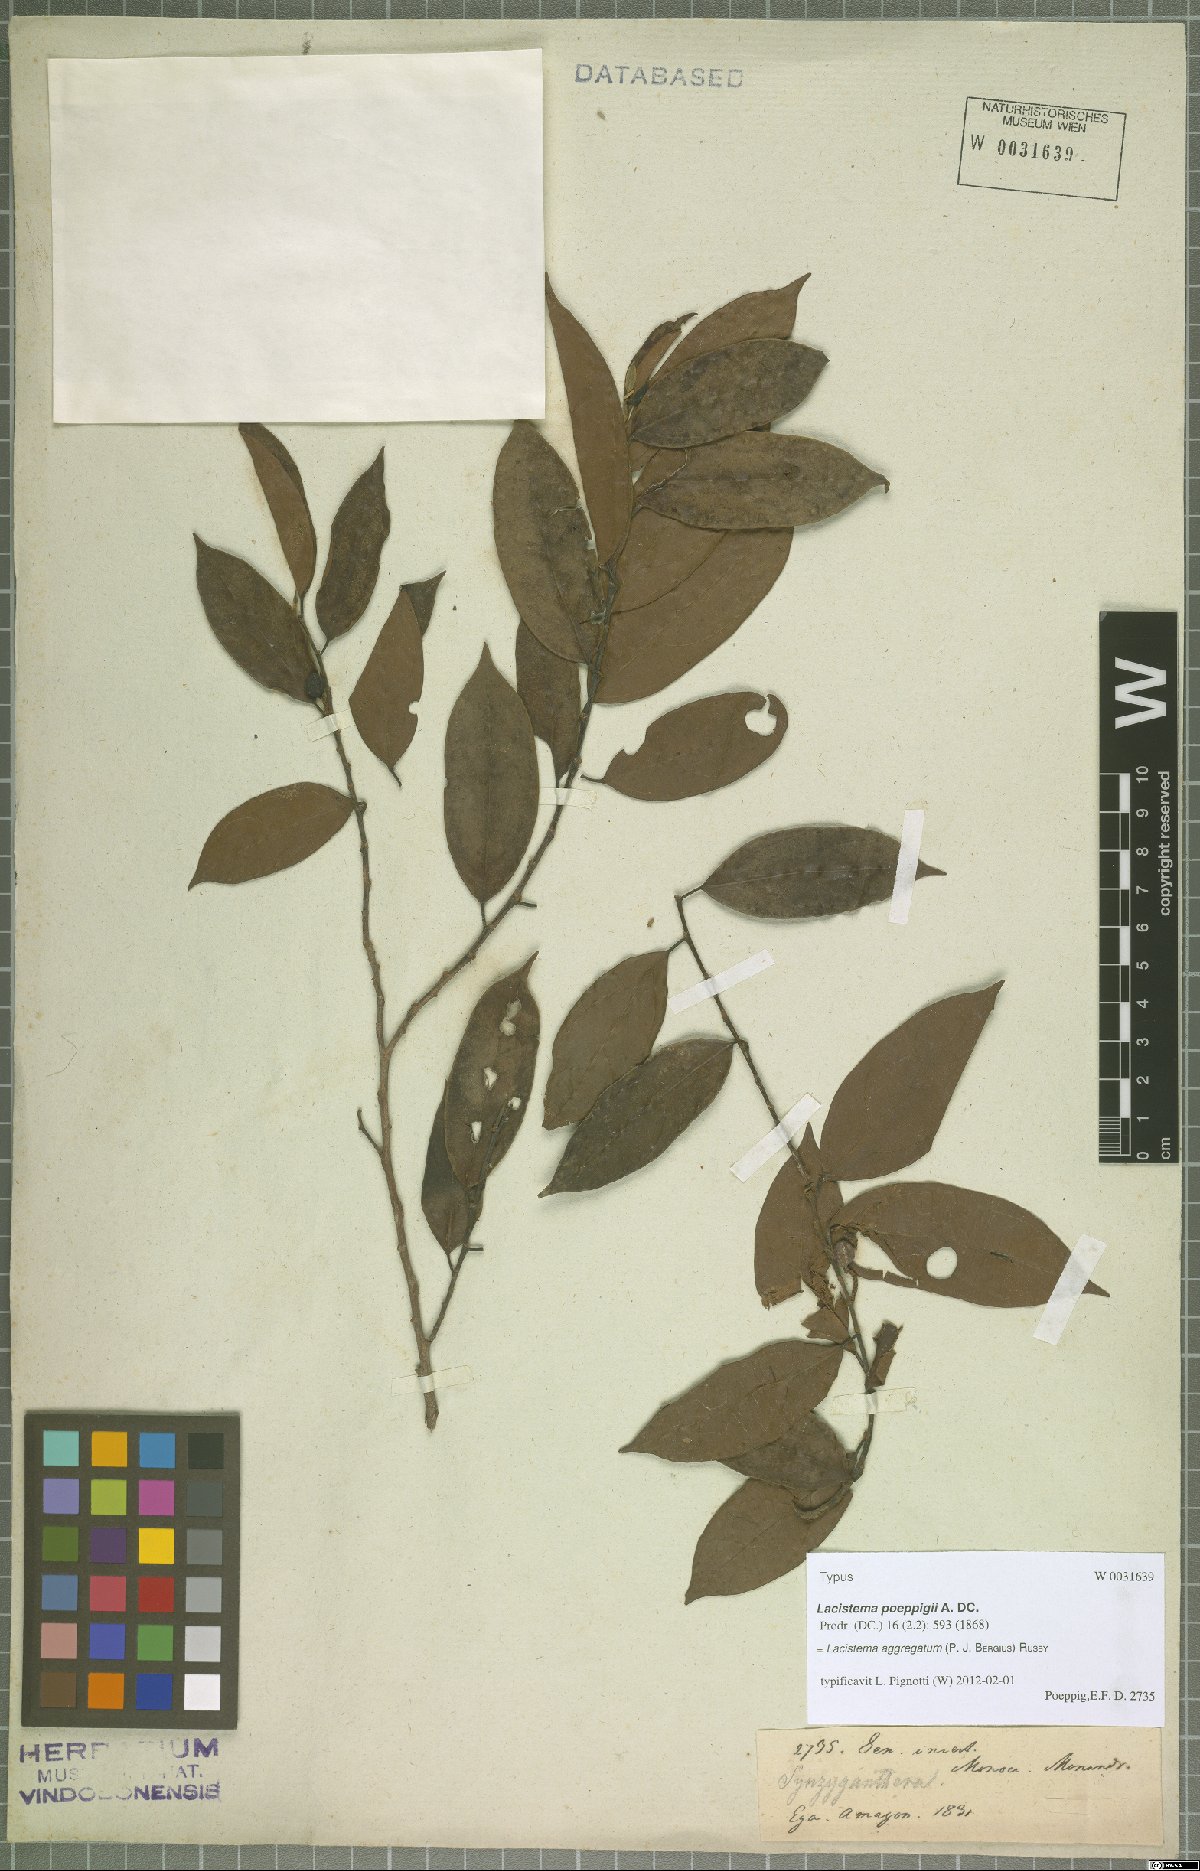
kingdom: Plantae
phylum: Tracheophyta
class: Magnoliopsida
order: Malpighiales
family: Lacistemataceae
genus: Lacistema
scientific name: Lacistema aggregatum
